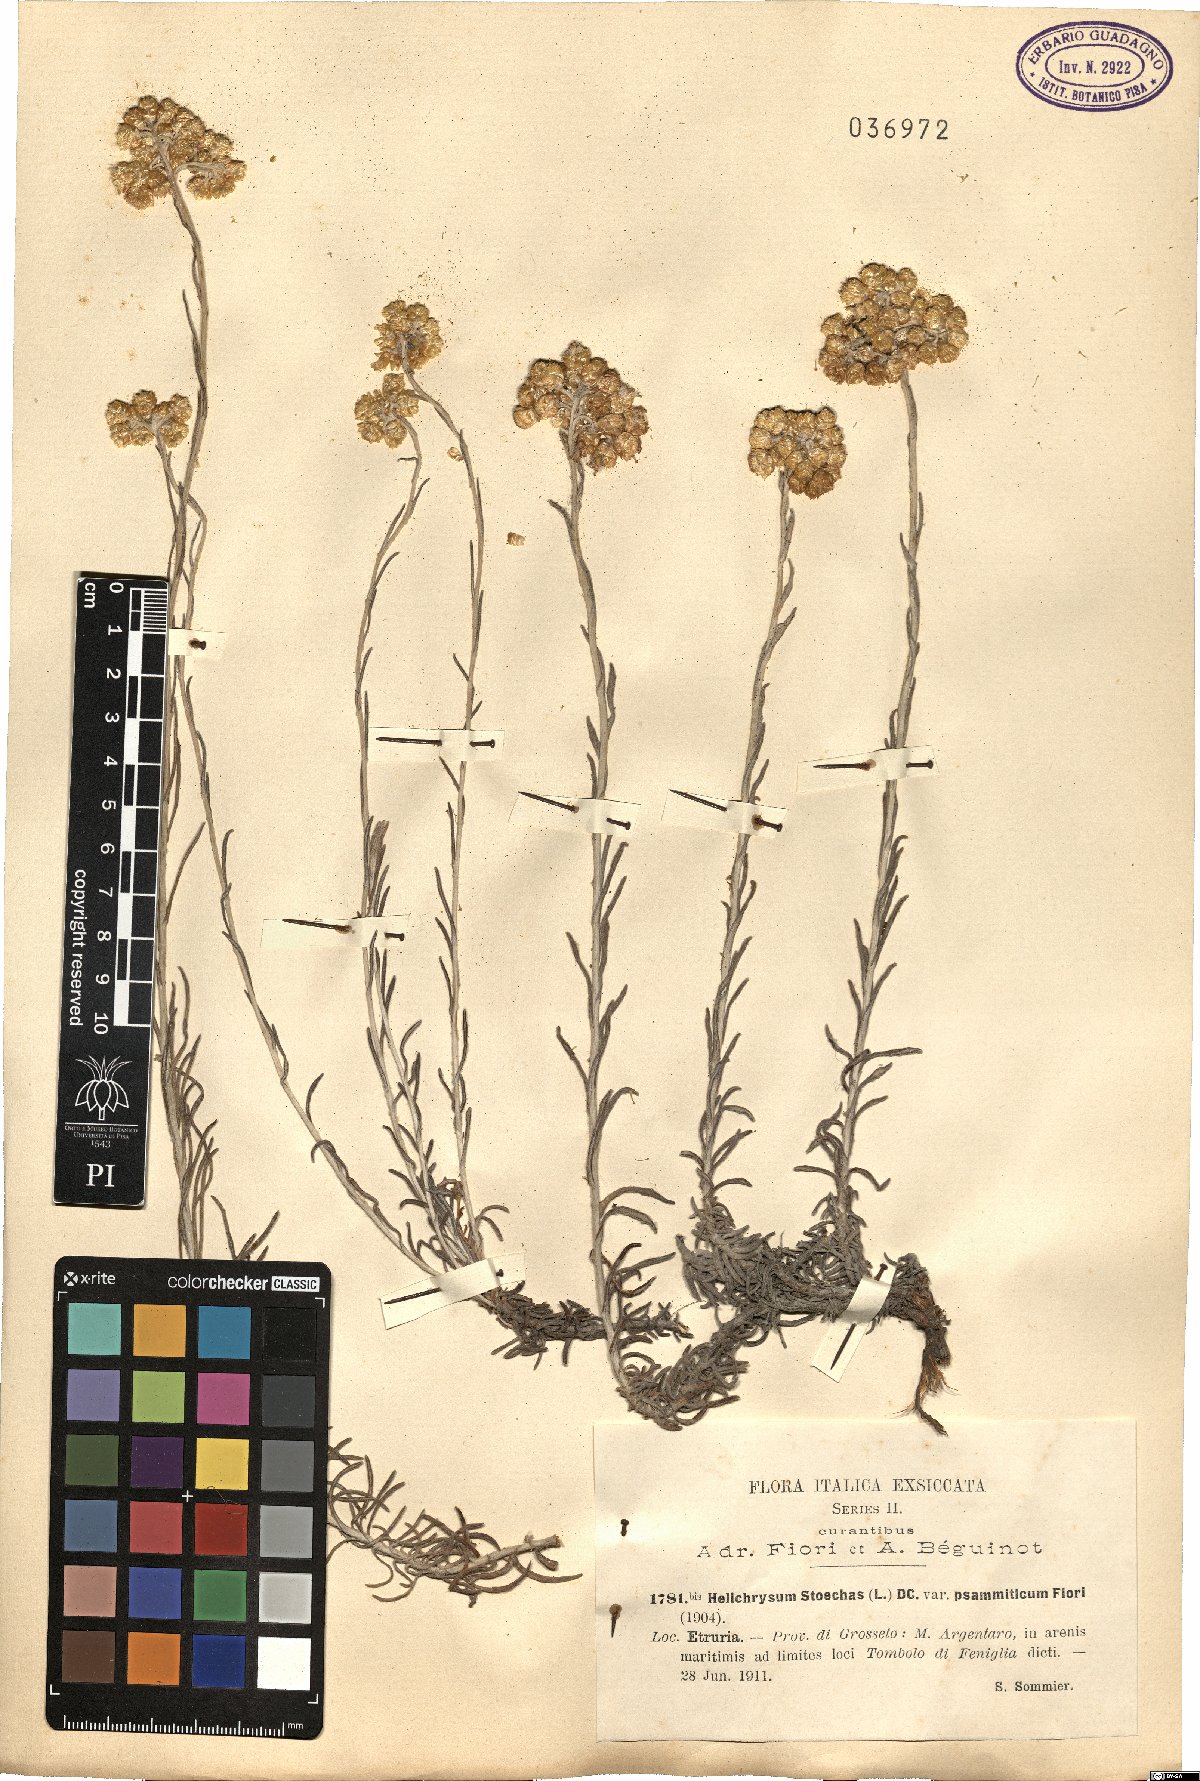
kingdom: Plantae
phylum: Tracheophyta
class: Magnoliopsida
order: Asterales
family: Asteraceae
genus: Helichrysum
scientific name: Helichrysum stoechas
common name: Goldilocks
